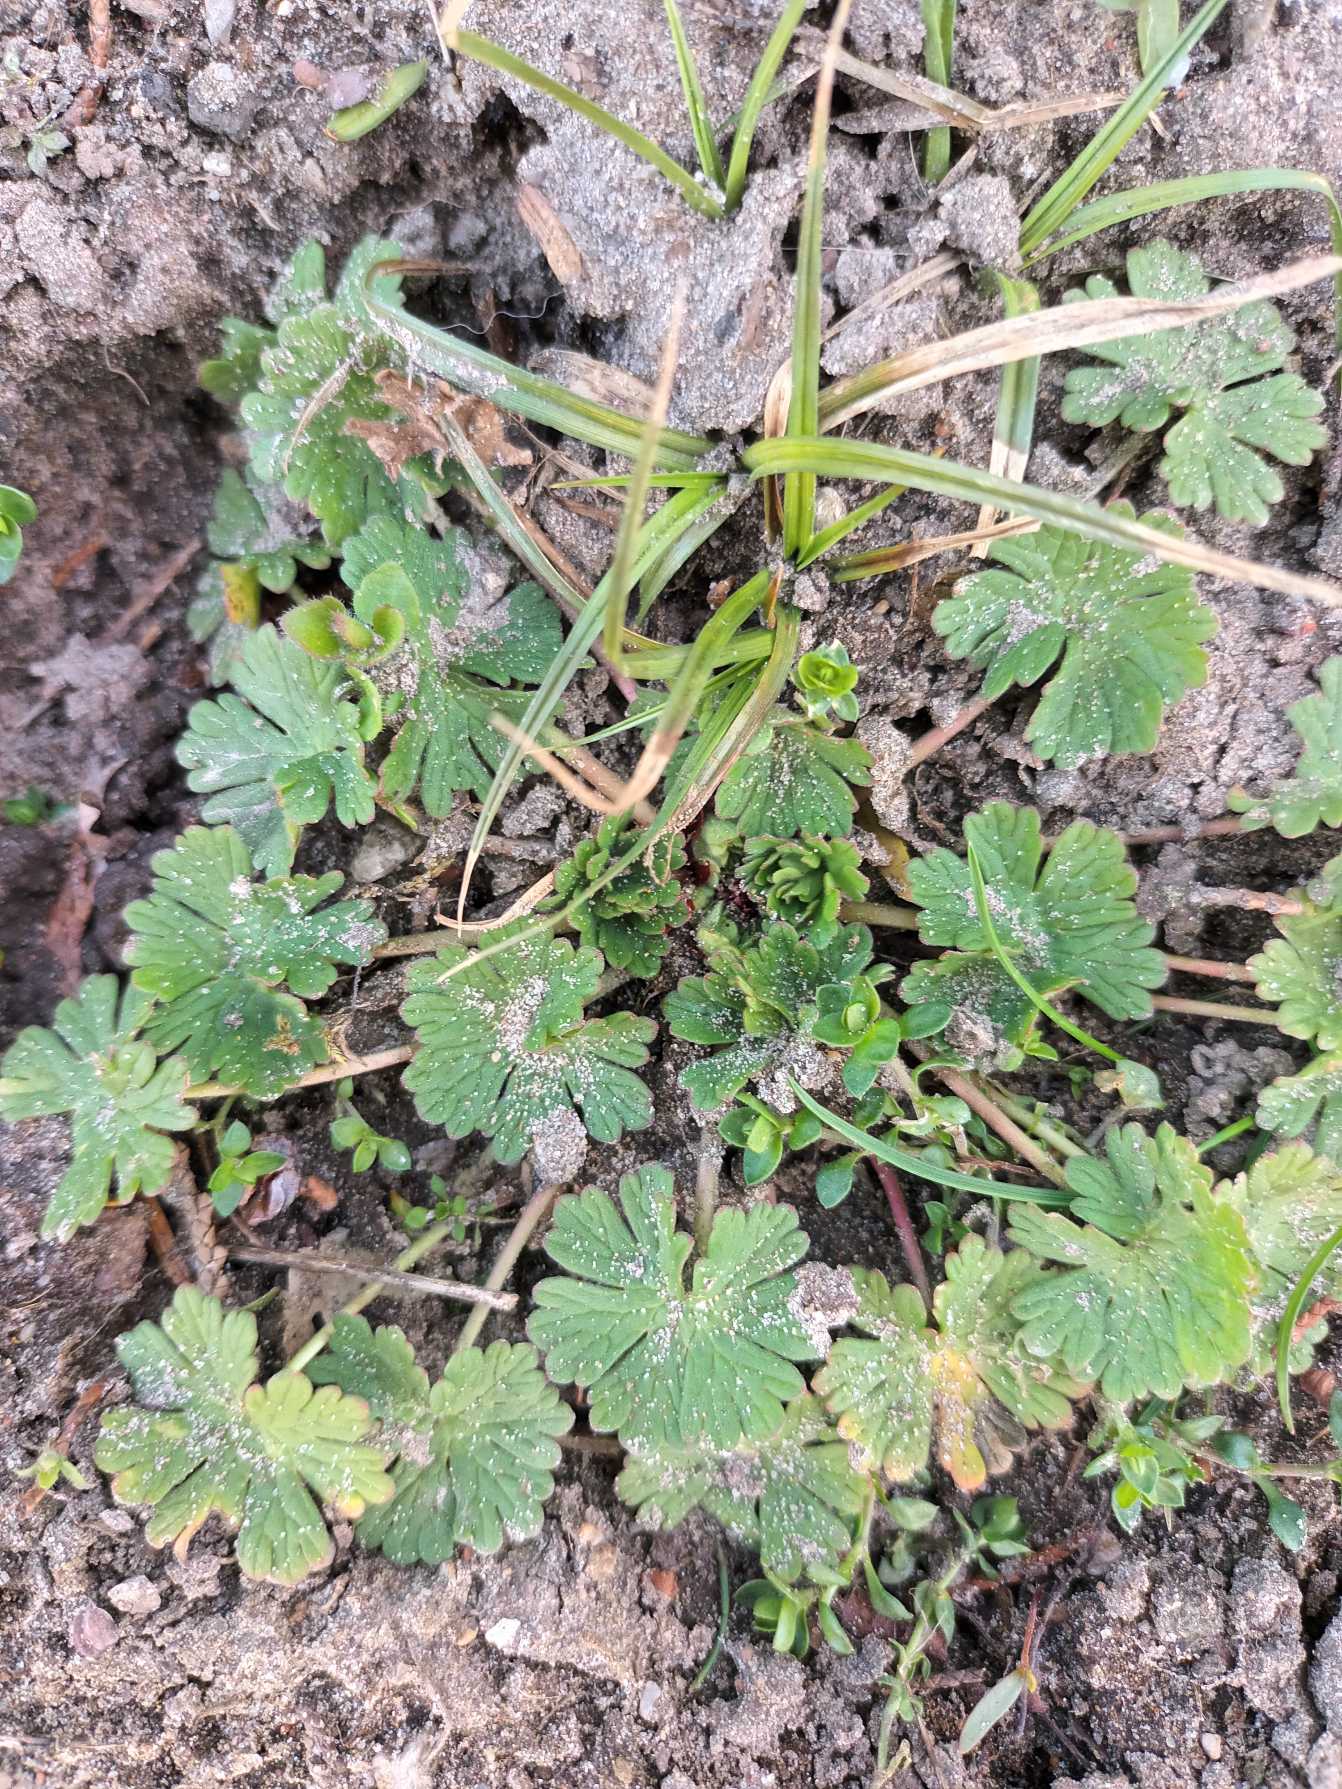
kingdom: Plantae
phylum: Tracheophyta
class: Magnoliopsida
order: Geraniales
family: Geraniaceae
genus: Geranium
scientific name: Geranium pusillum
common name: Liden storkenæb
